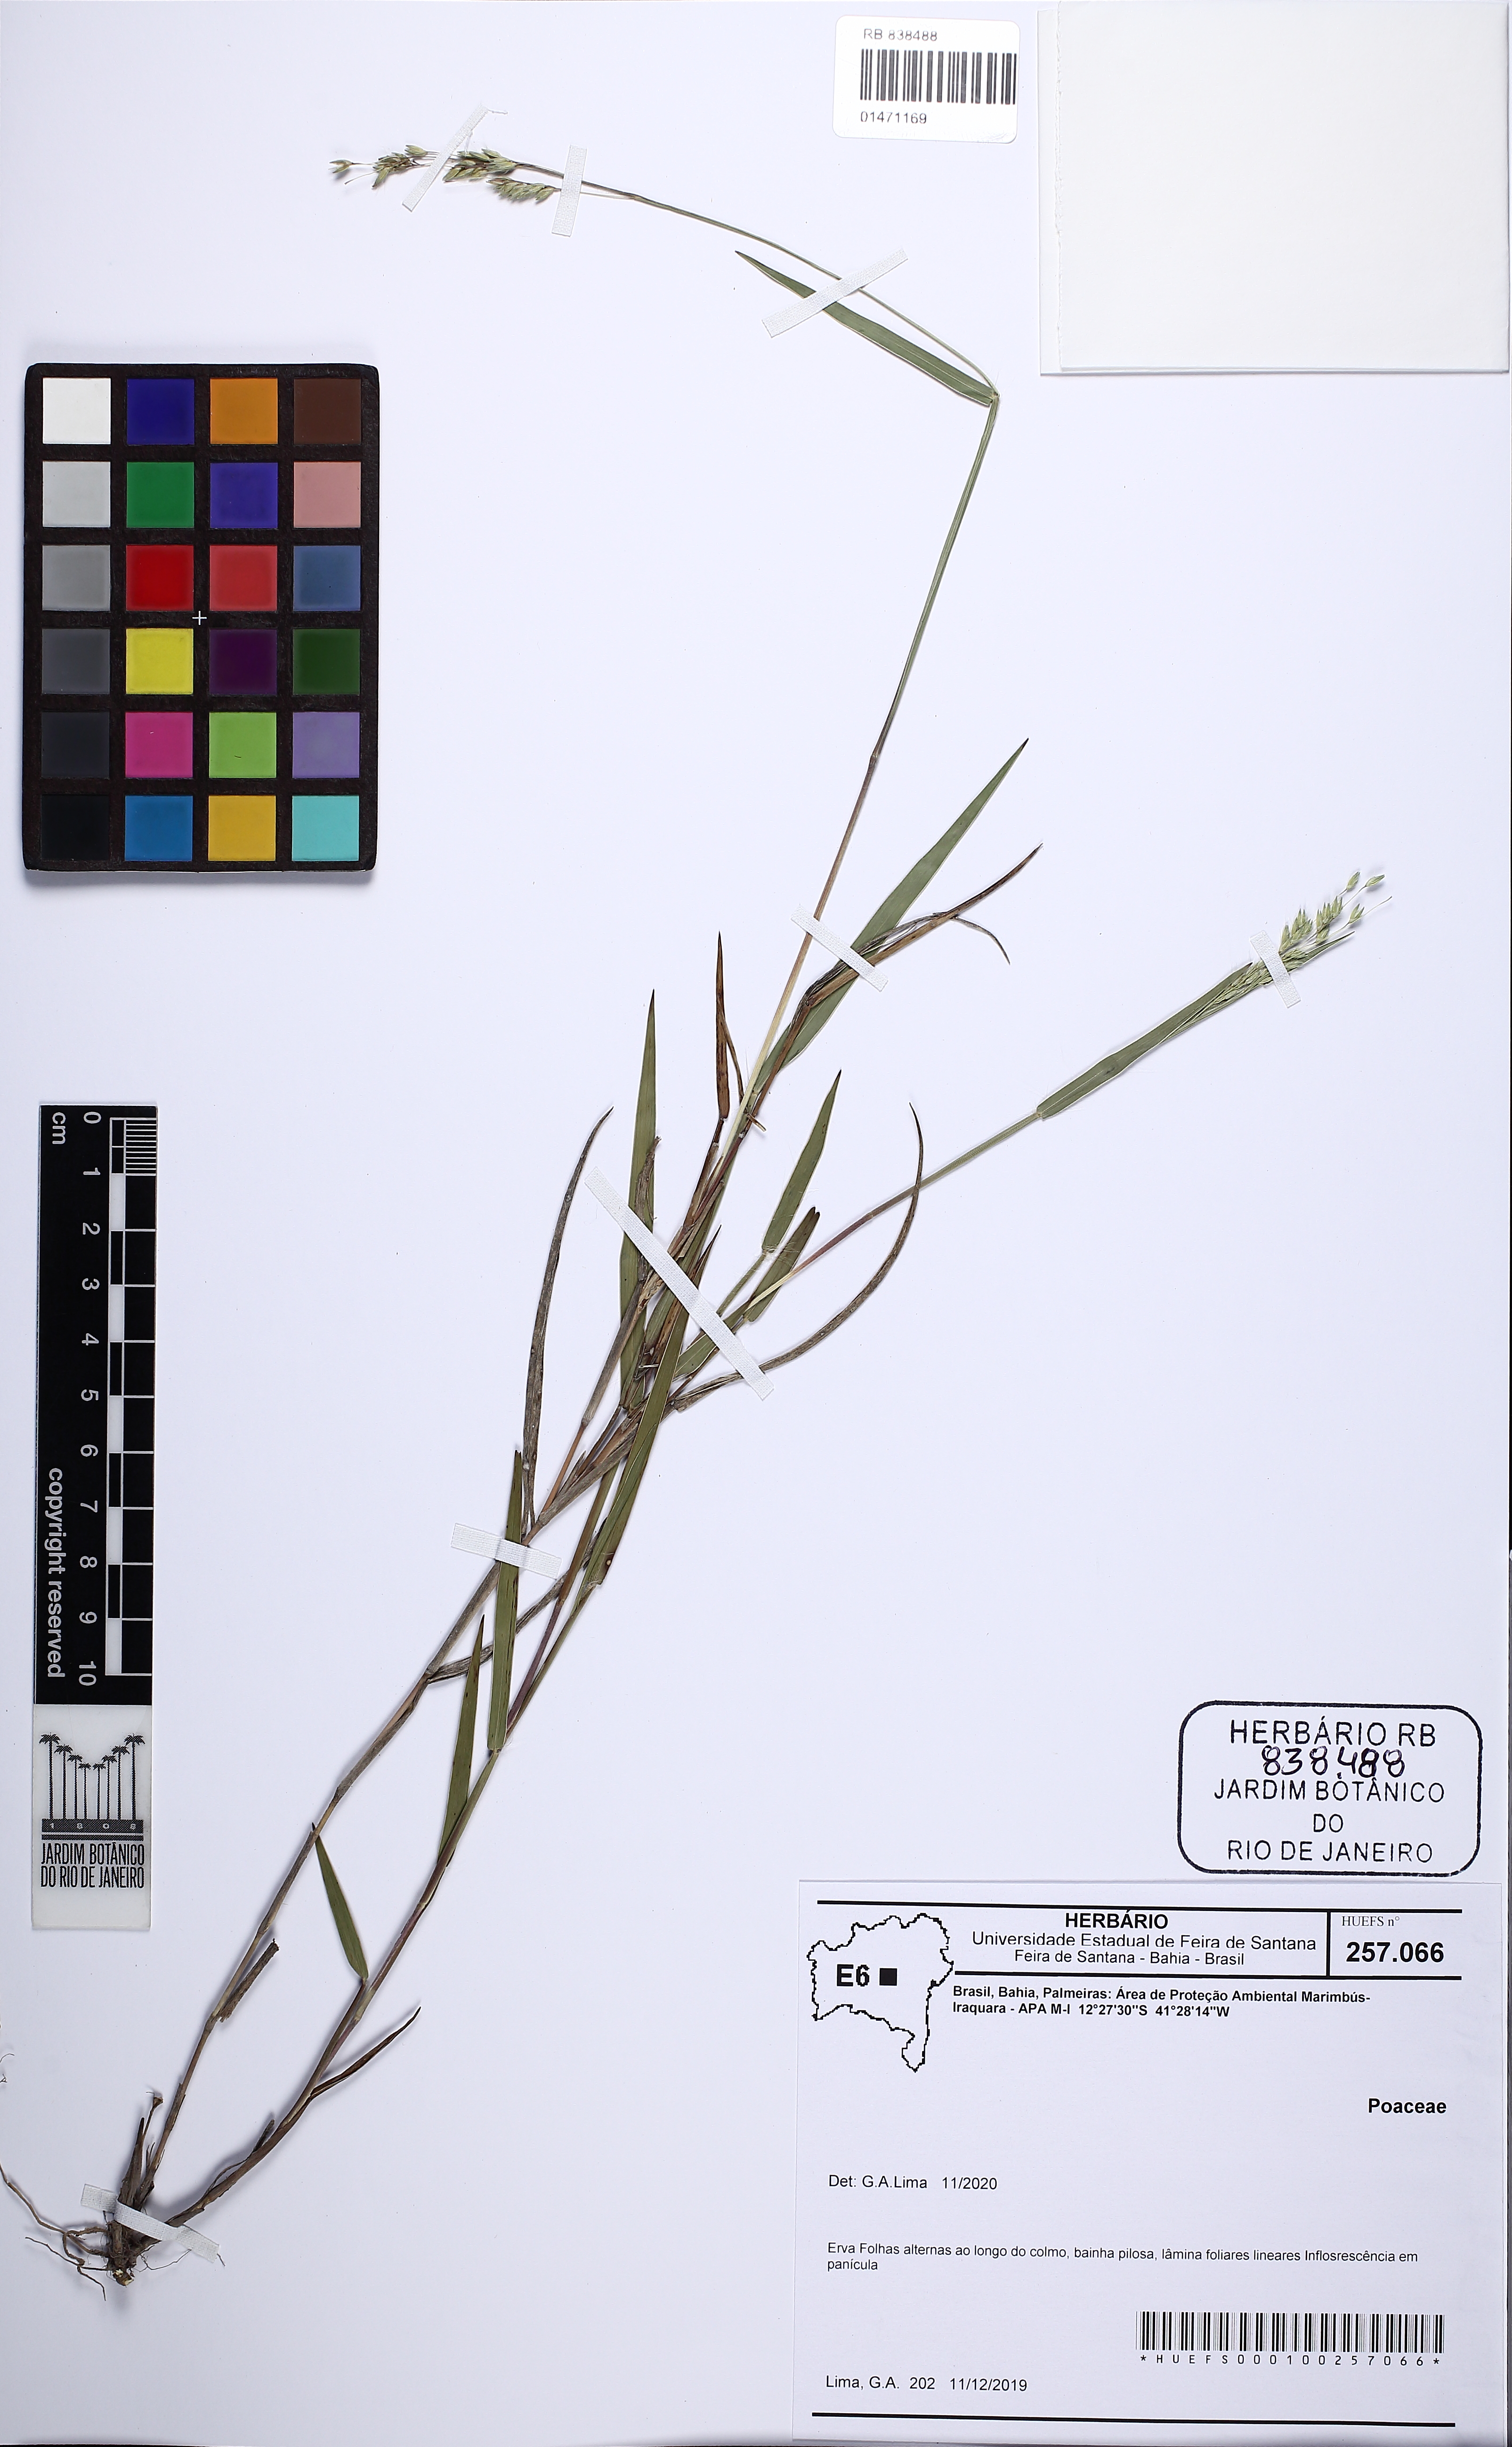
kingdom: Plantae
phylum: Tracheophyta
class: Liliopsida
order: Poales
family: Poaceae
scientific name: Poaceae
